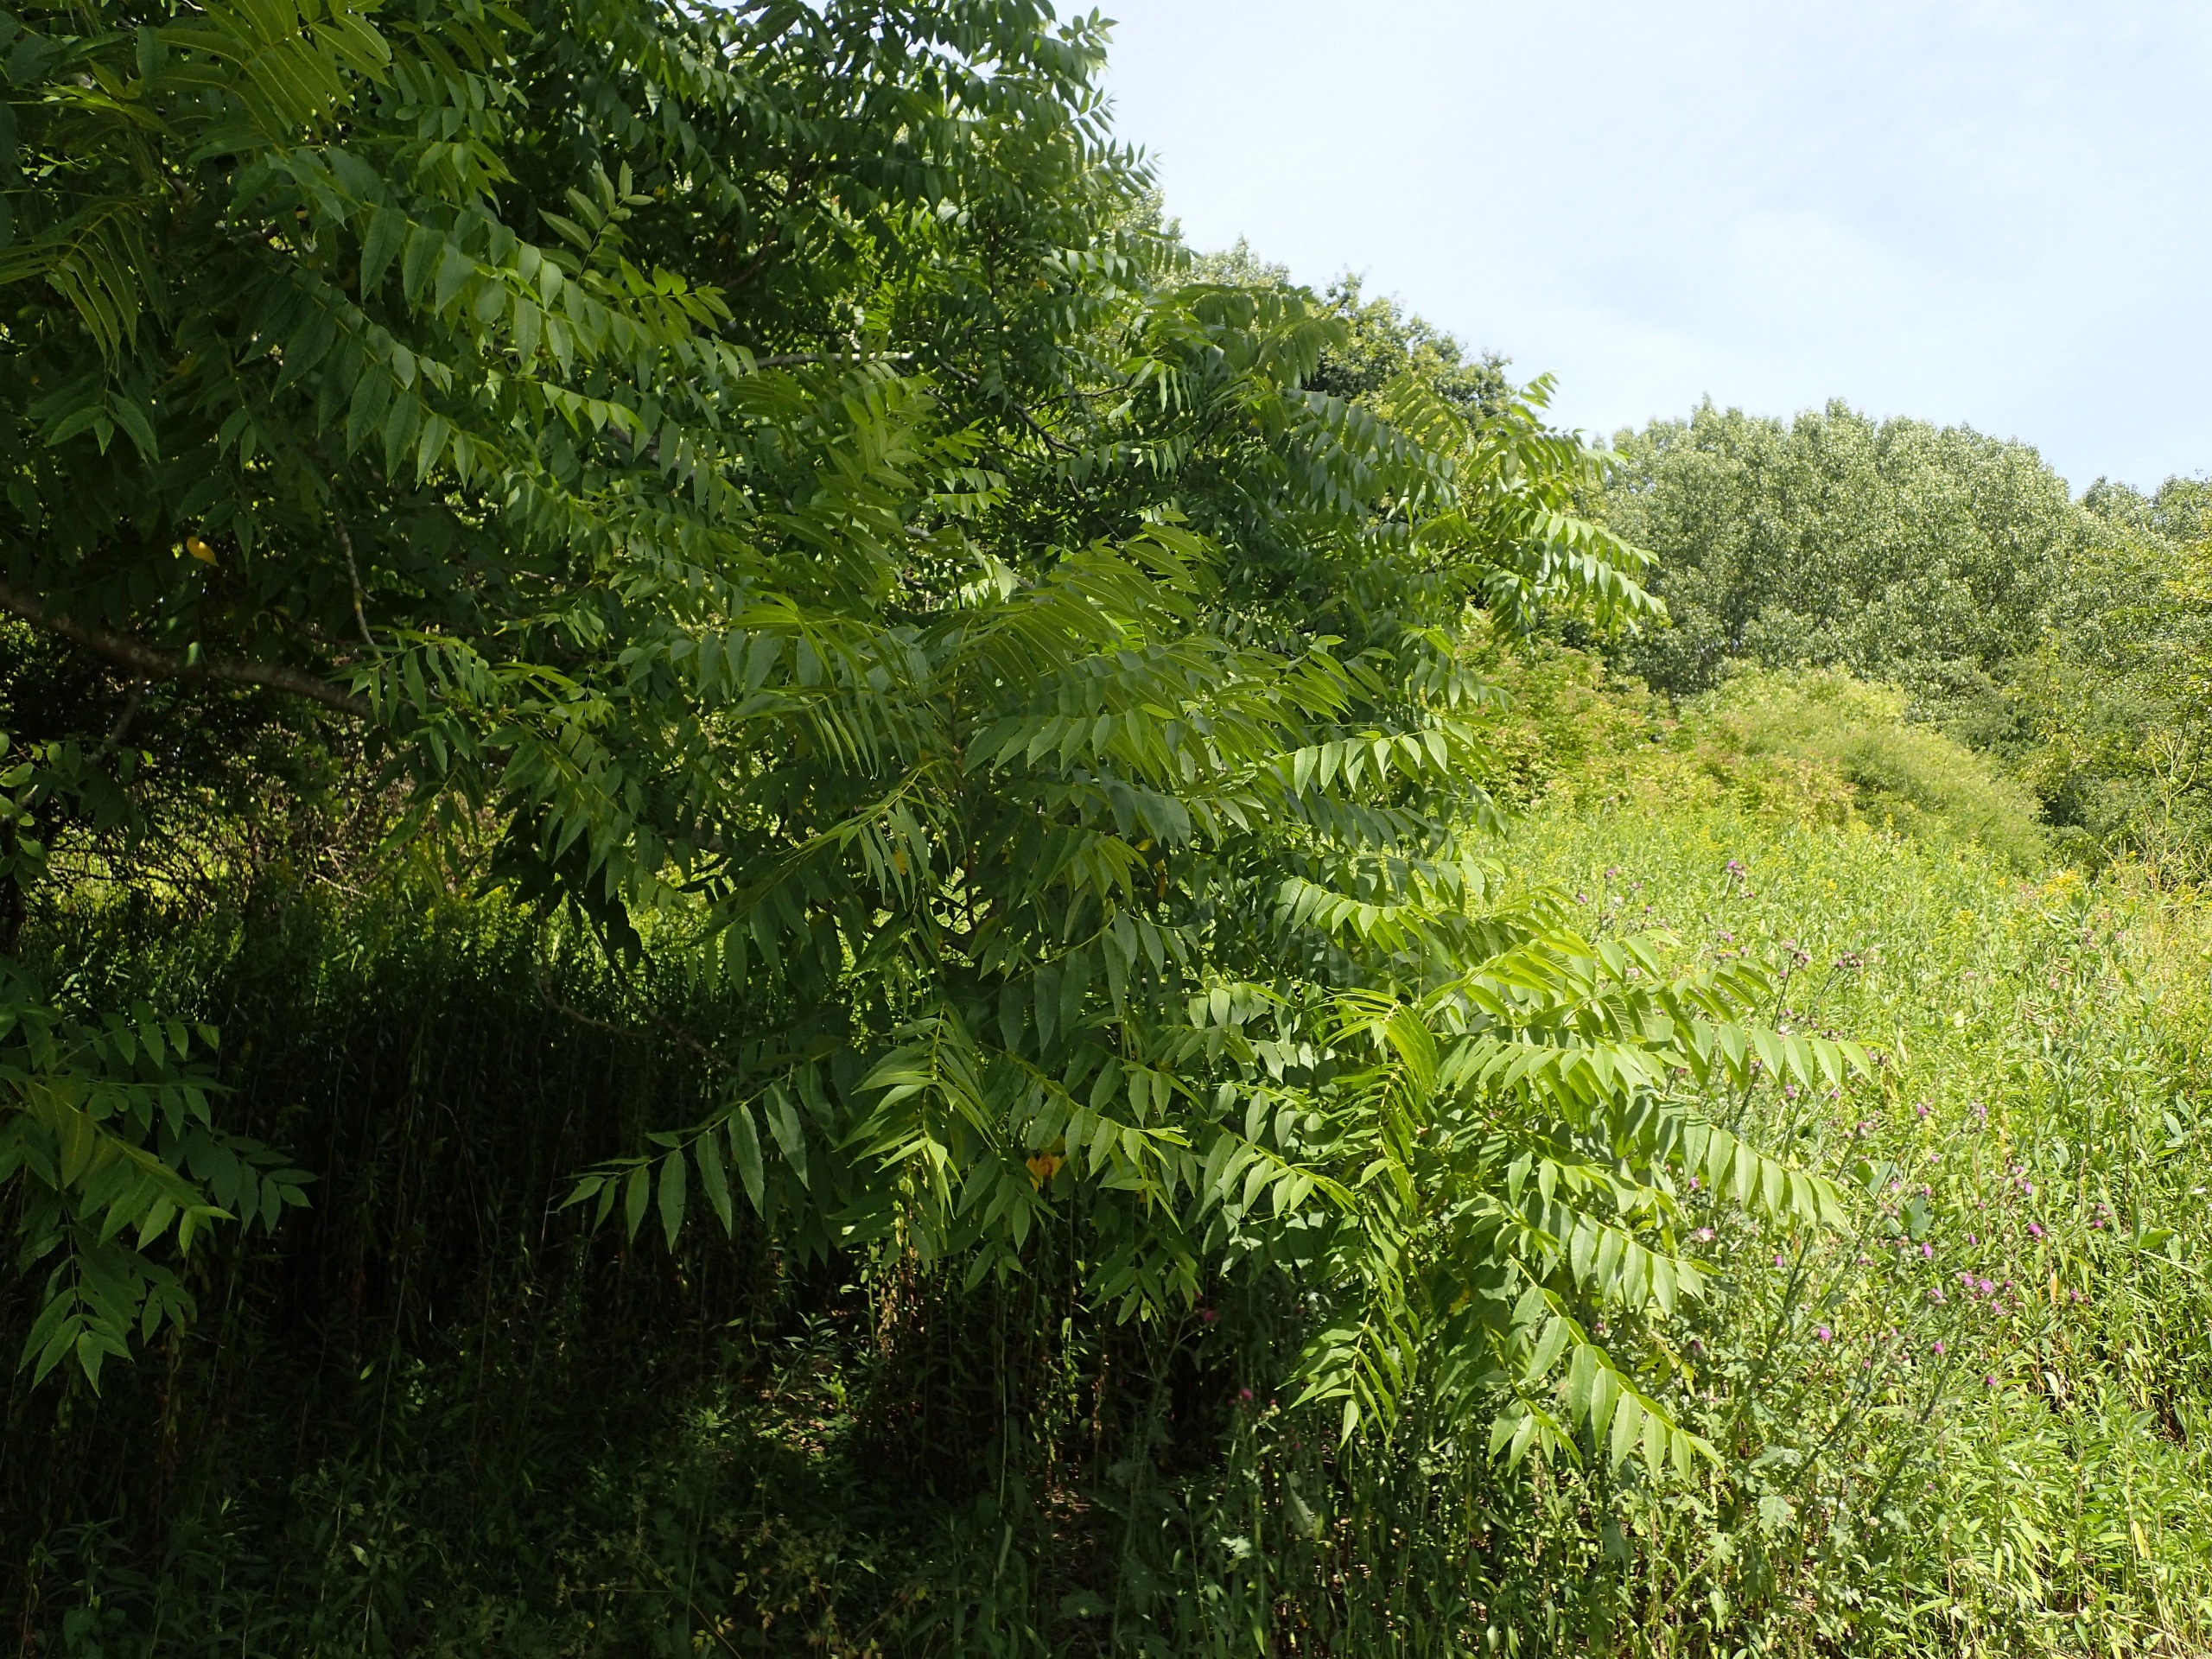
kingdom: Plantae
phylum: Tracheophyta
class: Magnoliopsida
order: Fagales
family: Juglandaceae
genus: Juglans
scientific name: Juglans nigra
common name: Sort valnød
